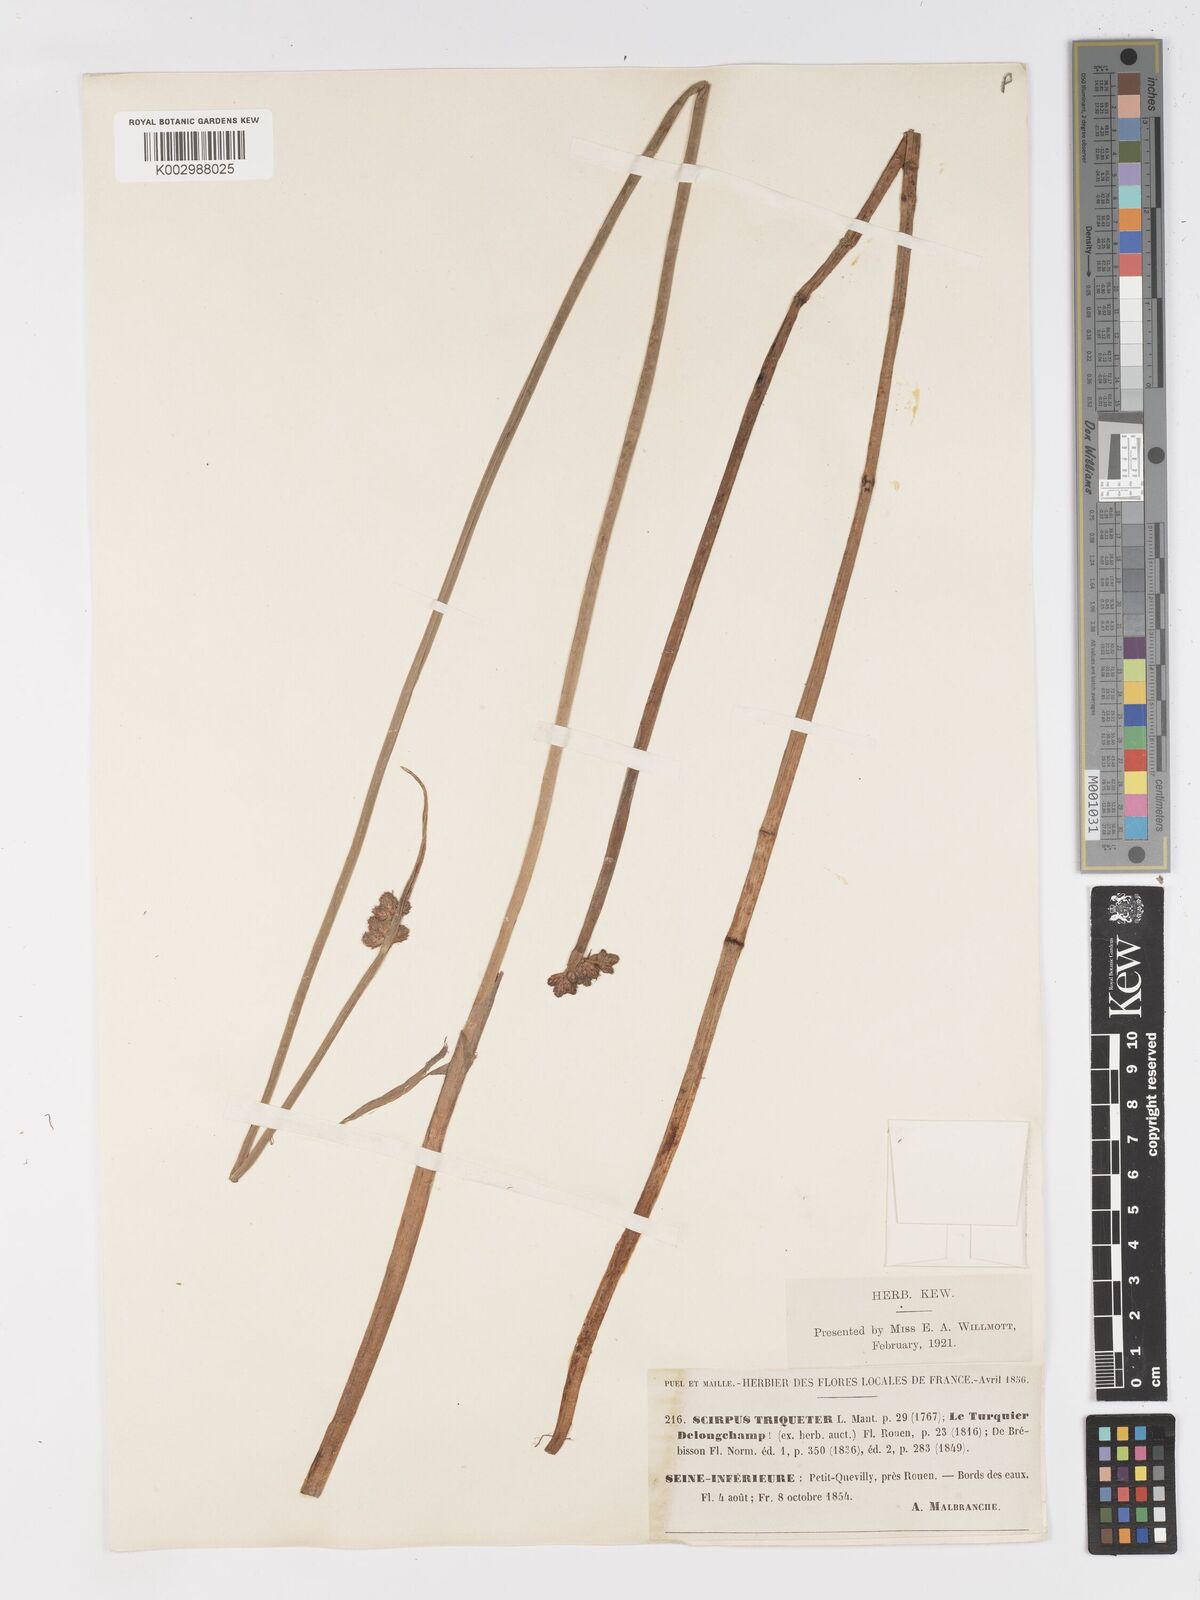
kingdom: Plantae
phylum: Tracheophyta
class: Liliopsida
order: Poales
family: Cyperaceae
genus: Schoenoplectus
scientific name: Schoenoplectus triqueter
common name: Triangular club-rush
